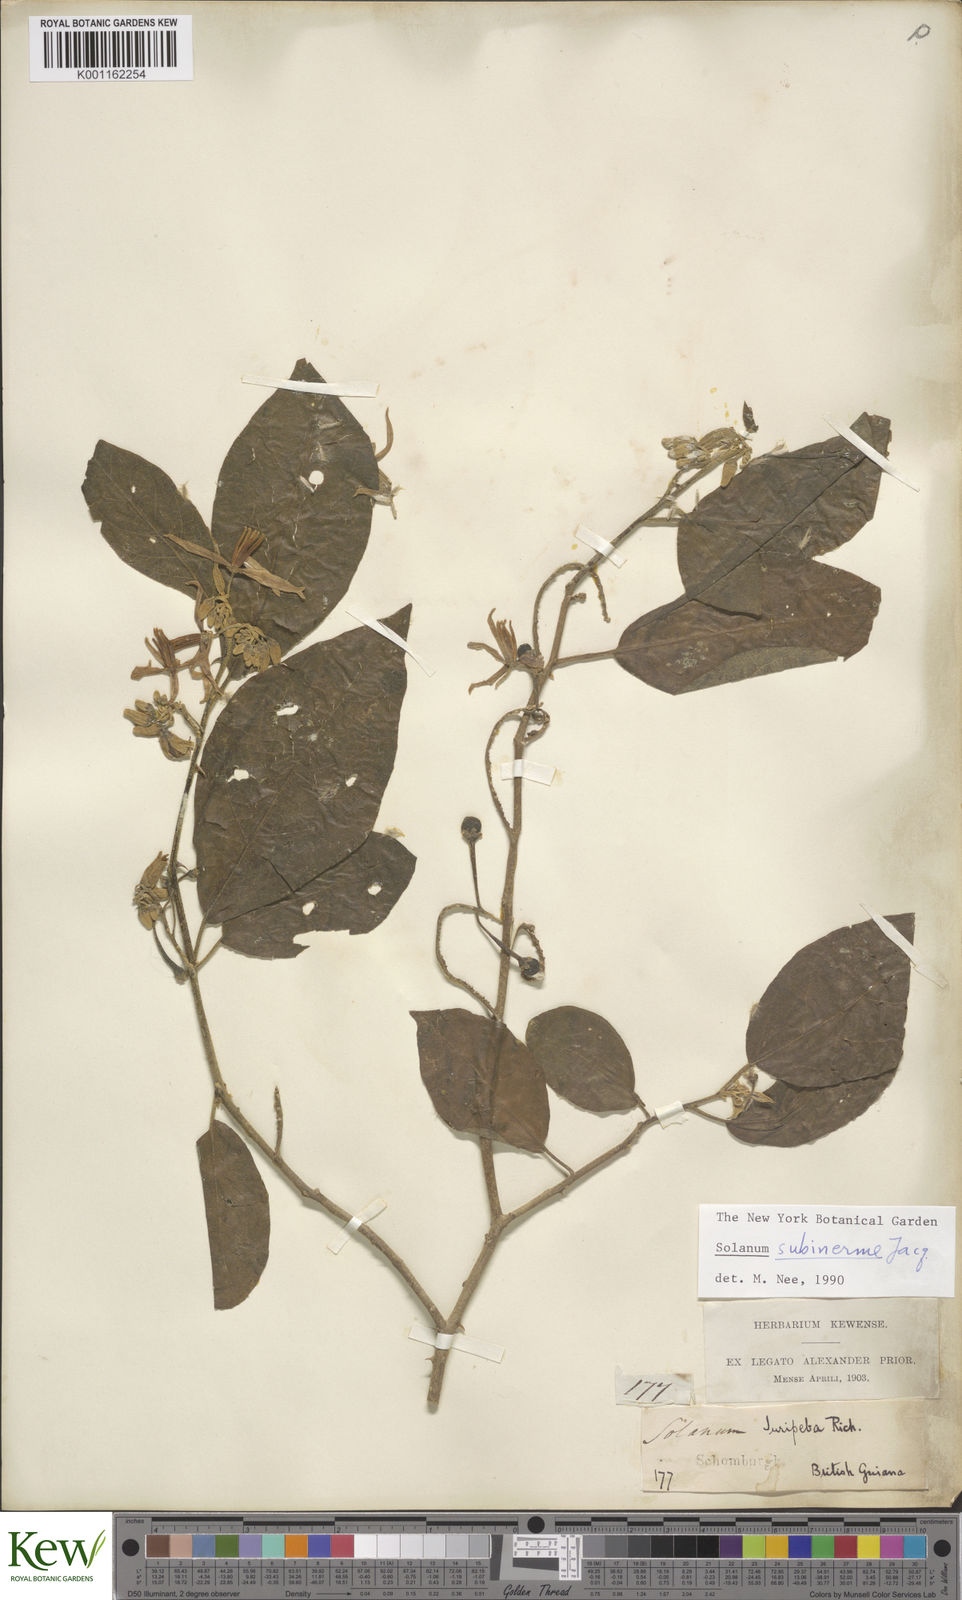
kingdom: Plantae
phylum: Tracheophyta
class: Magnoliopsida
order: Solanales
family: Solanaceae
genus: Solanum
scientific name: Solanum subinerme
